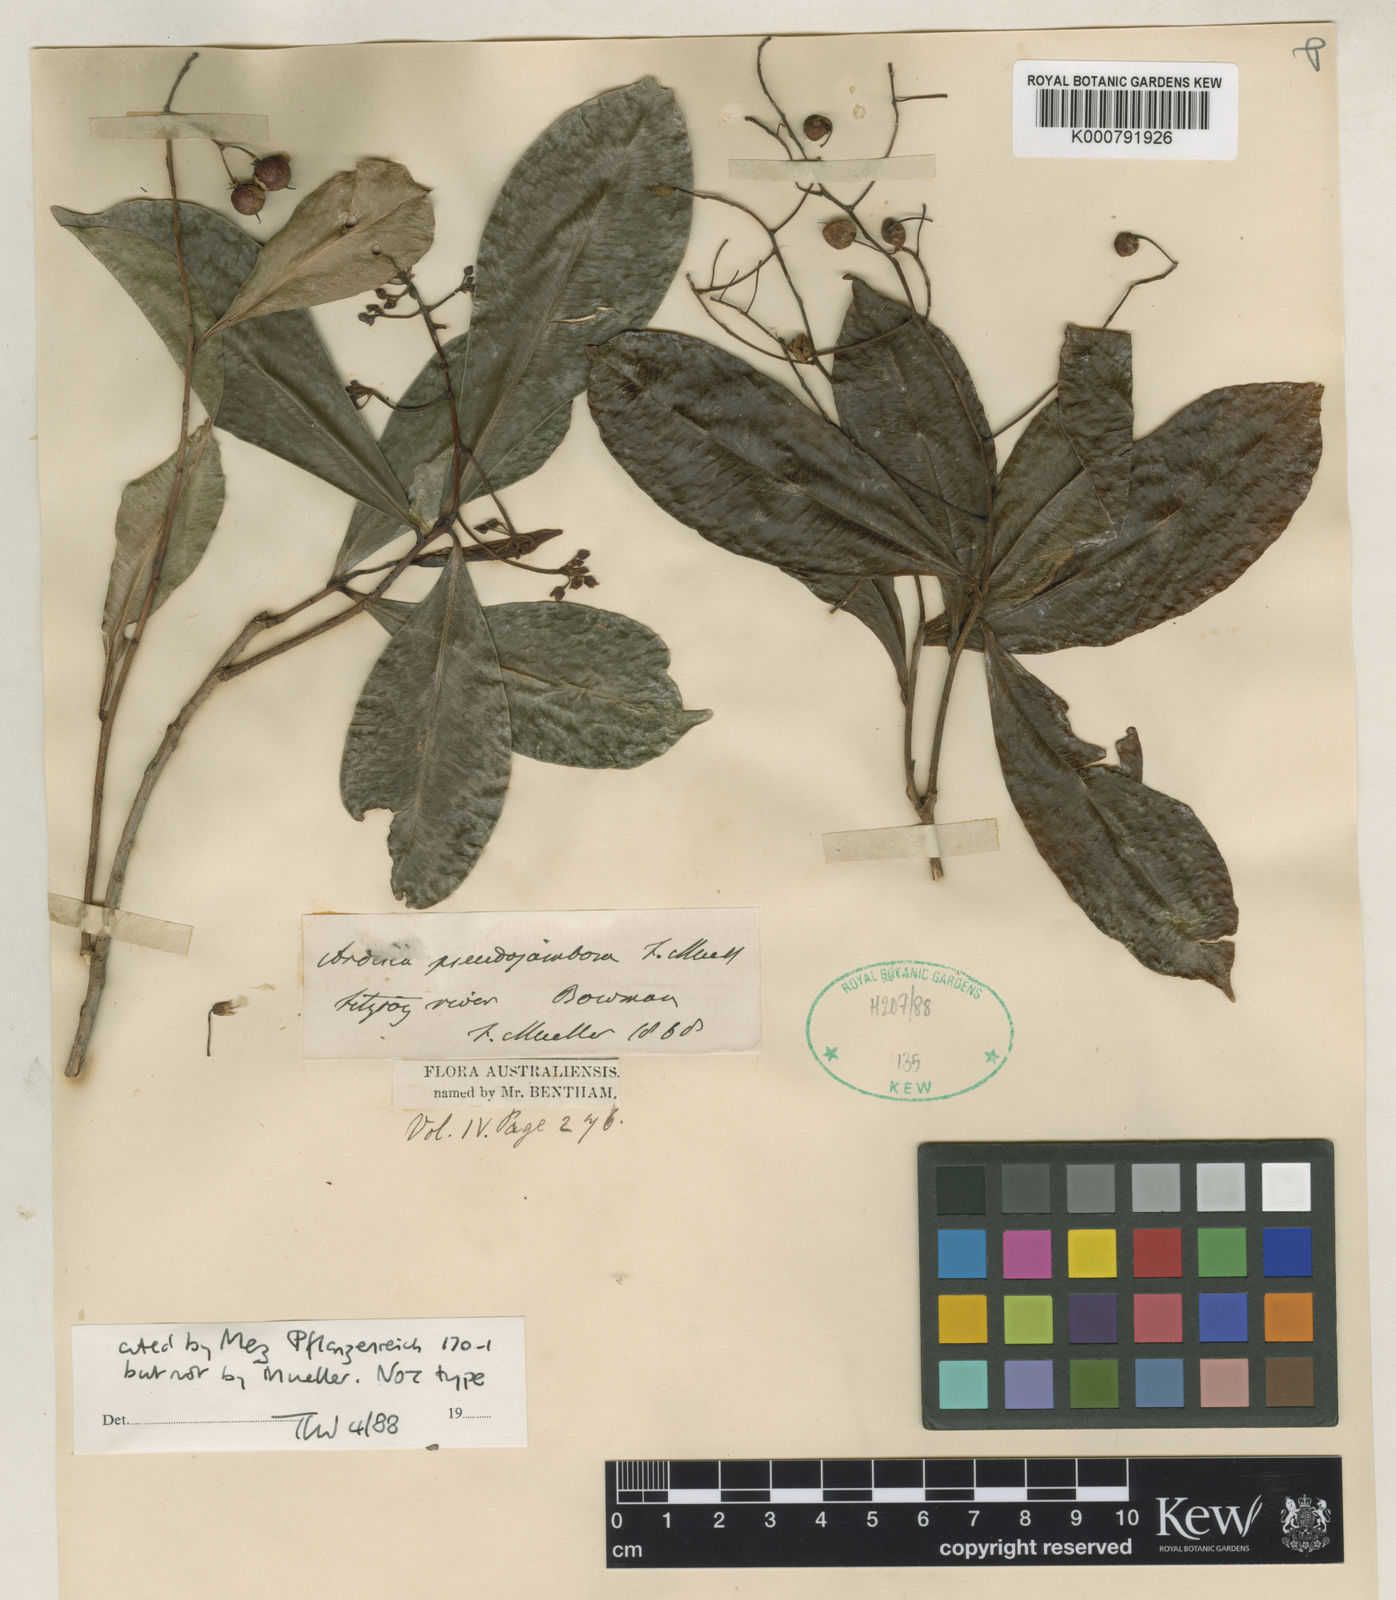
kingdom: Plantae
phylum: Tracheophyta
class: Magnoliopsida
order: Ericales
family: Primulaceae
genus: Tapeinosperma
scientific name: Tapeinosperma pseudojambosa
